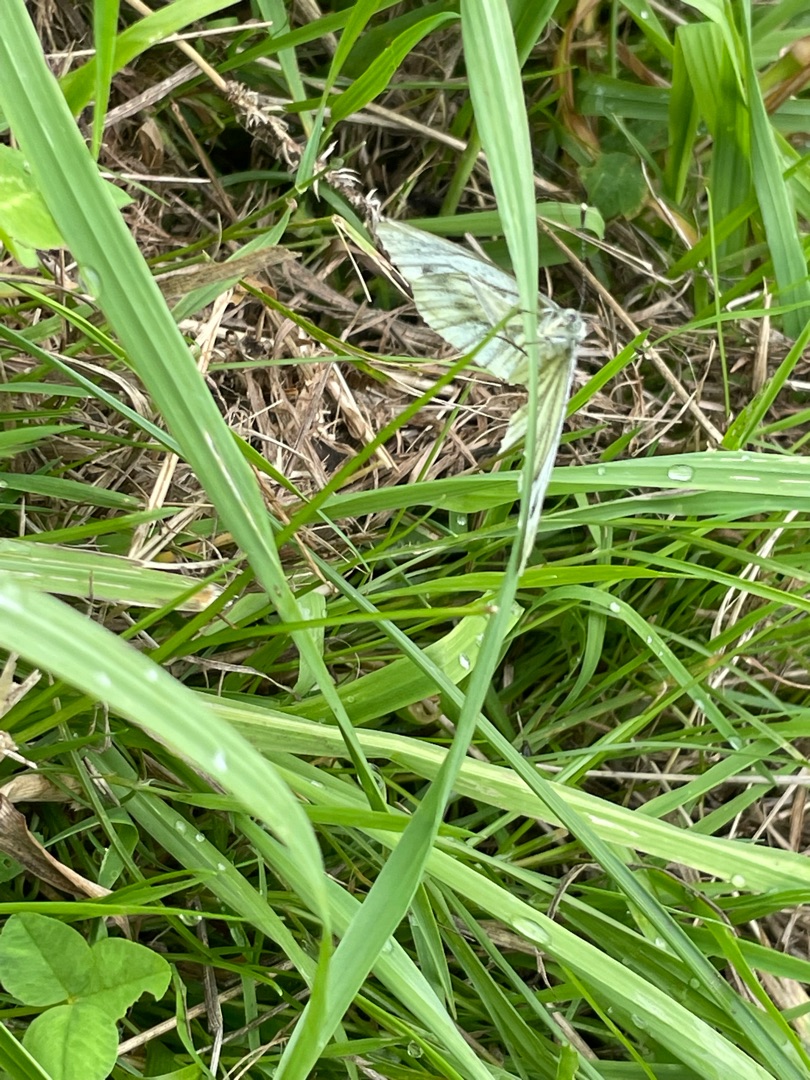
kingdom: Animalia
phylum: Arthropoda
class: Insecta
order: Lepidoptera
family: Pieridae
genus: Pieris
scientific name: Pieris napi
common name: Grønåret kålsommerfugl
